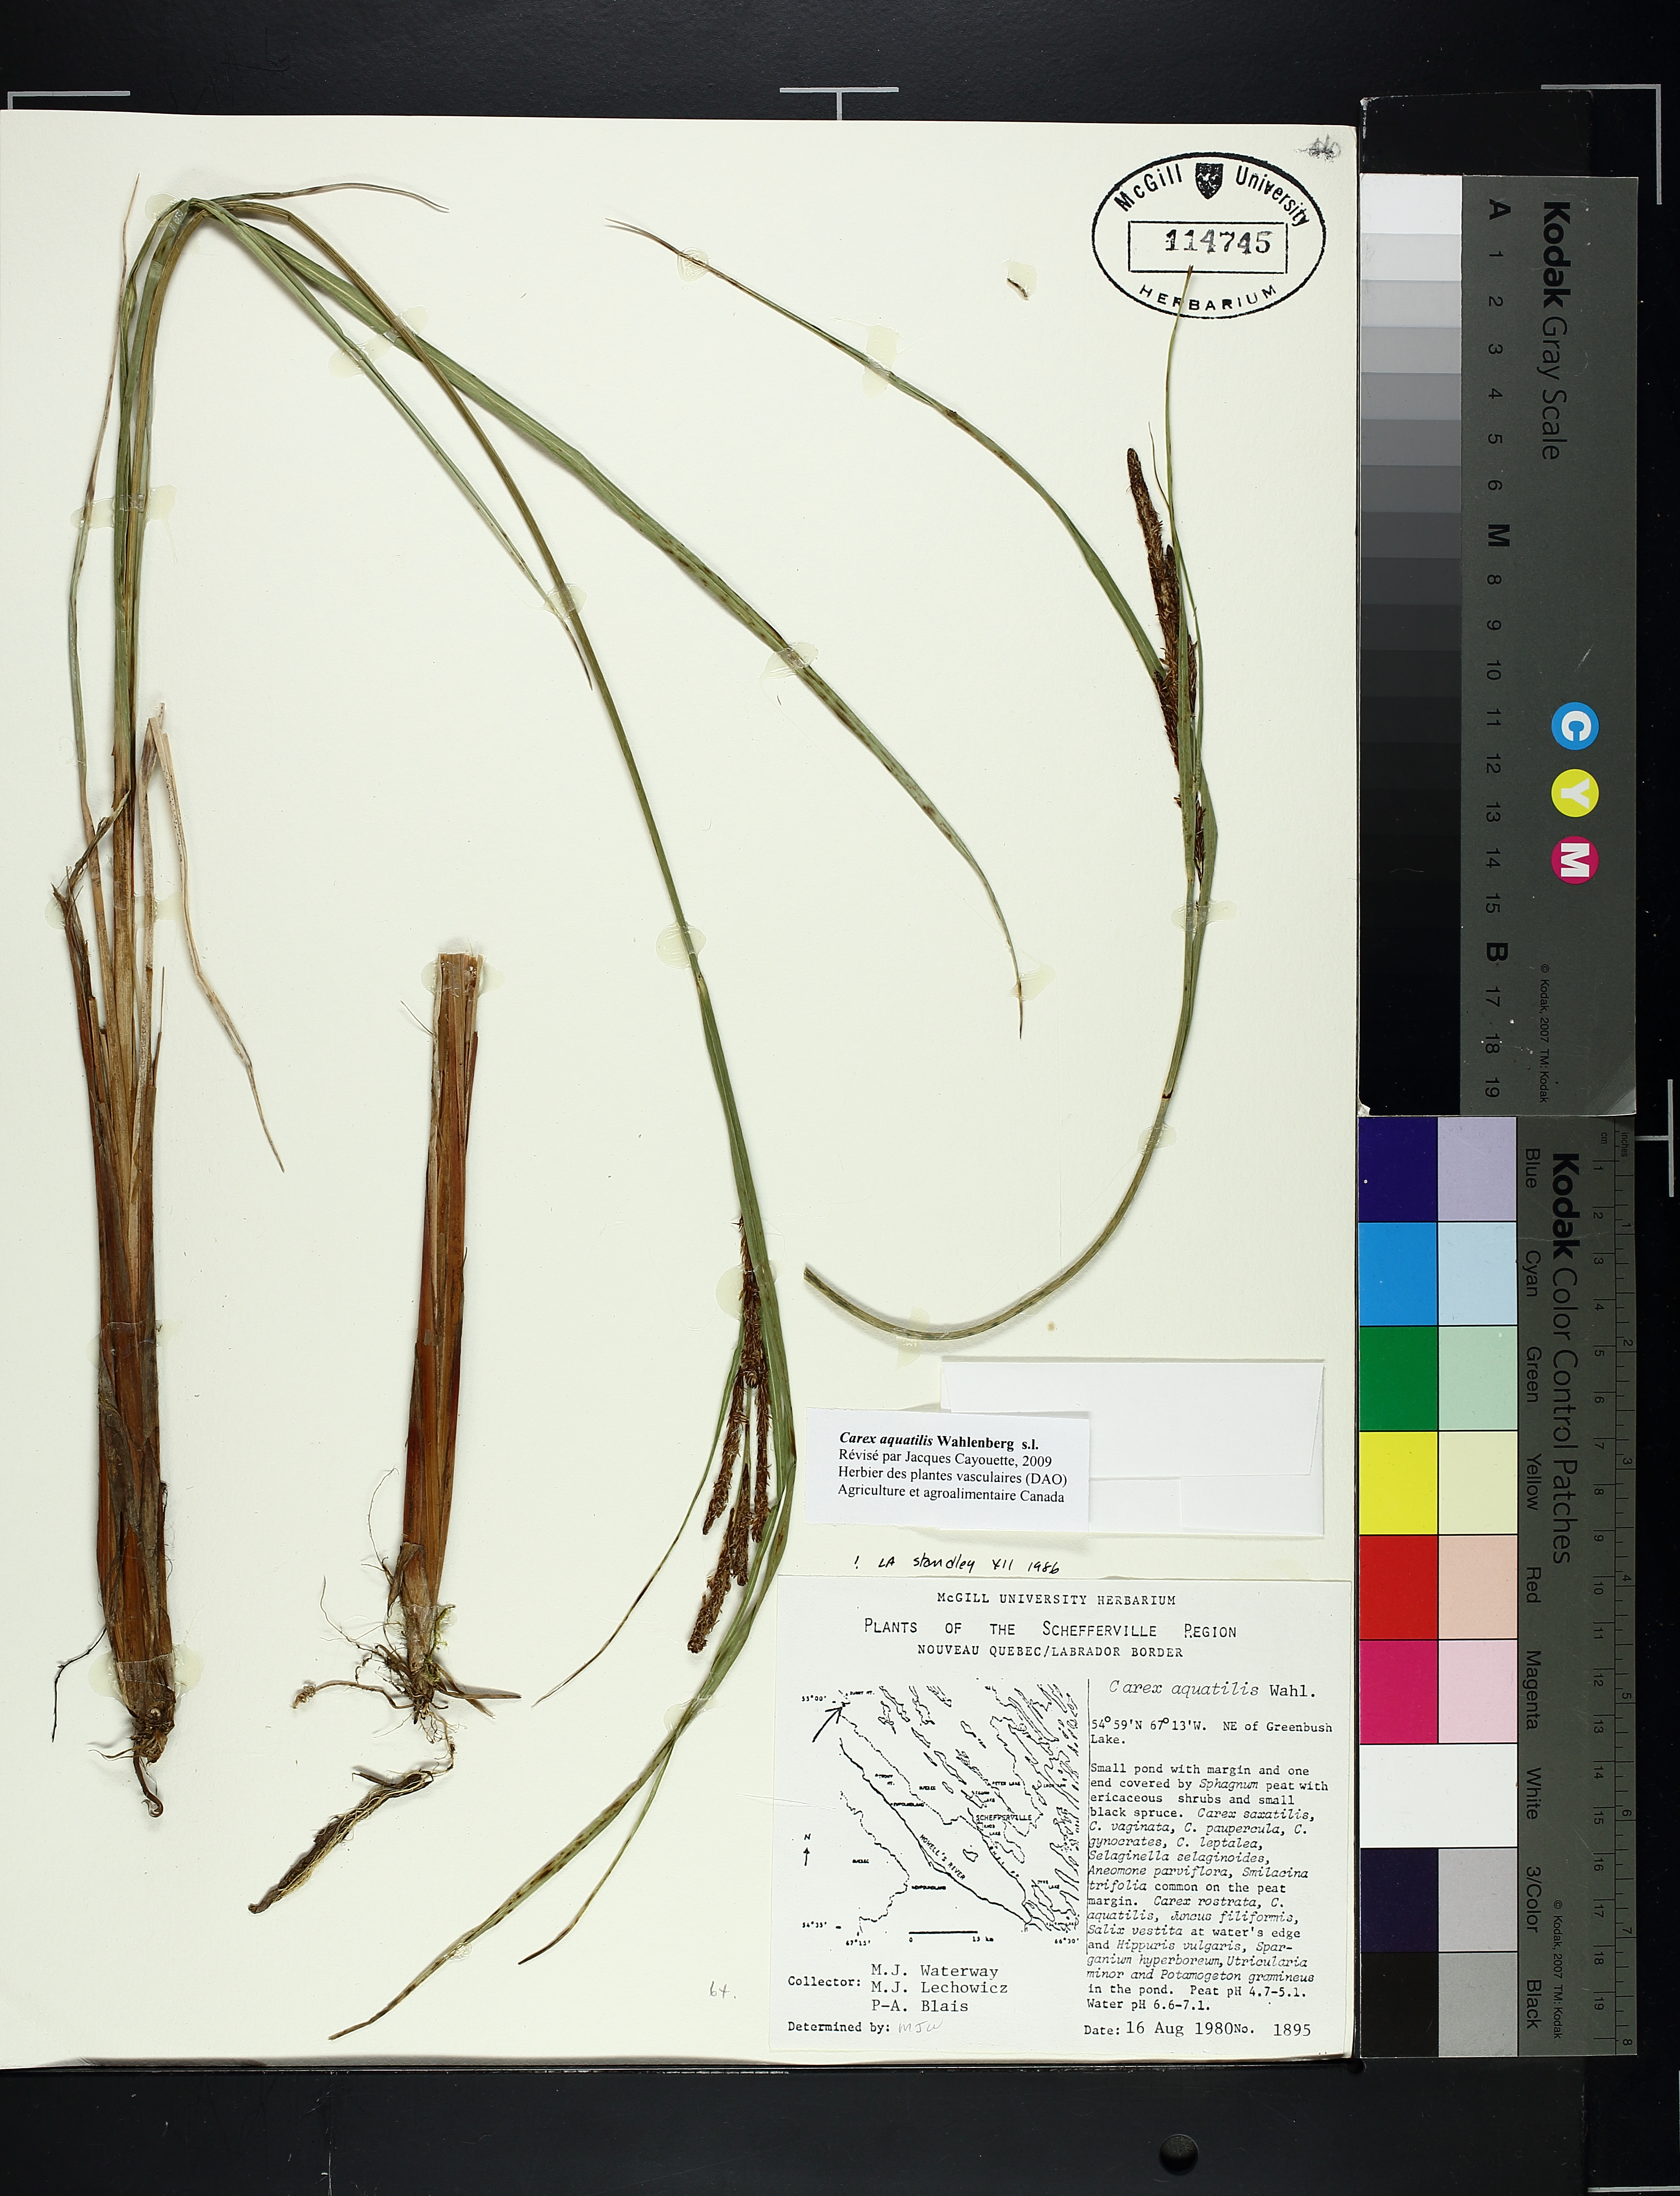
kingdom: Plantae
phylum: Tracheophyta
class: Liliopsida
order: Poales
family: Cyperaceae
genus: Carex
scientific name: Carex aquatilis
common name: Water sedge
